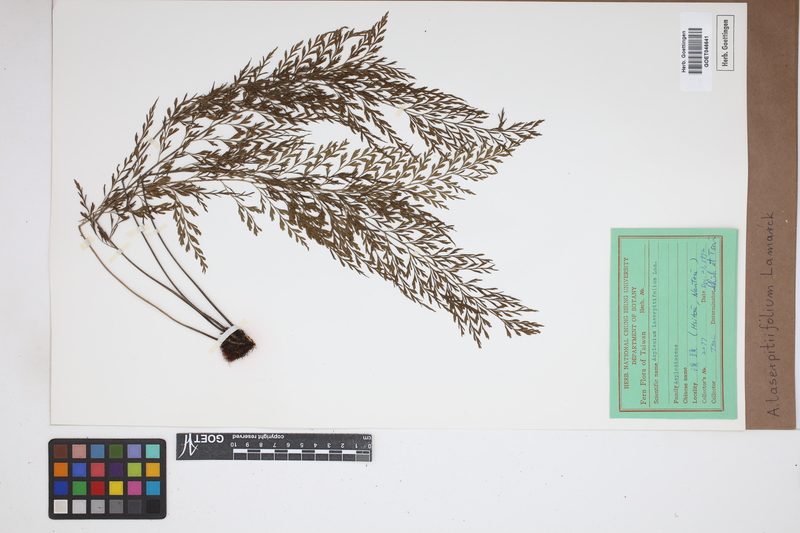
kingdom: Plantae
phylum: Tracheophyta
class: Polypodiopsida
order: Polypodiales
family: Aspleniaceae
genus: Asplenium
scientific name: Asplenium laserpitiifolium
